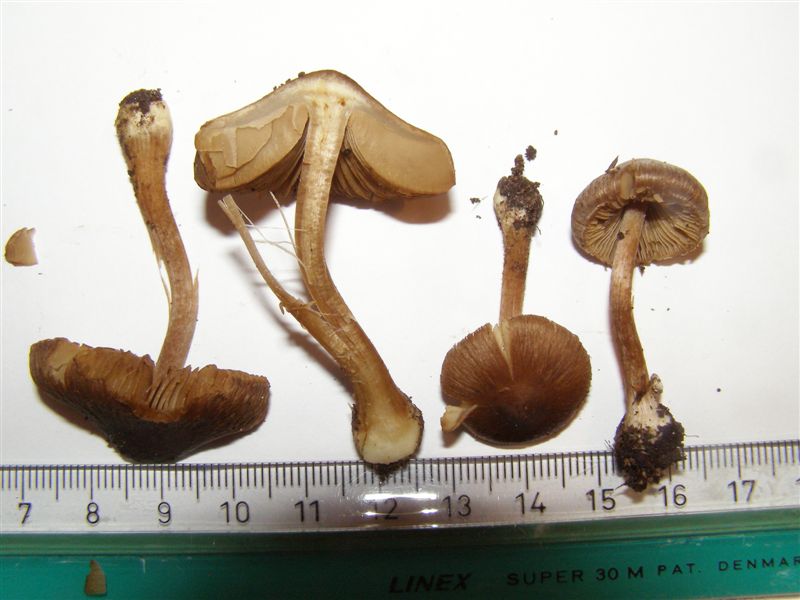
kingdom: Fungi
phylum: Basidiomycota
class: Agaricomycetes
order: Agaricales
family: Inocybaceae
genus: Inocybe
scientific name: Inocybe assimilata
